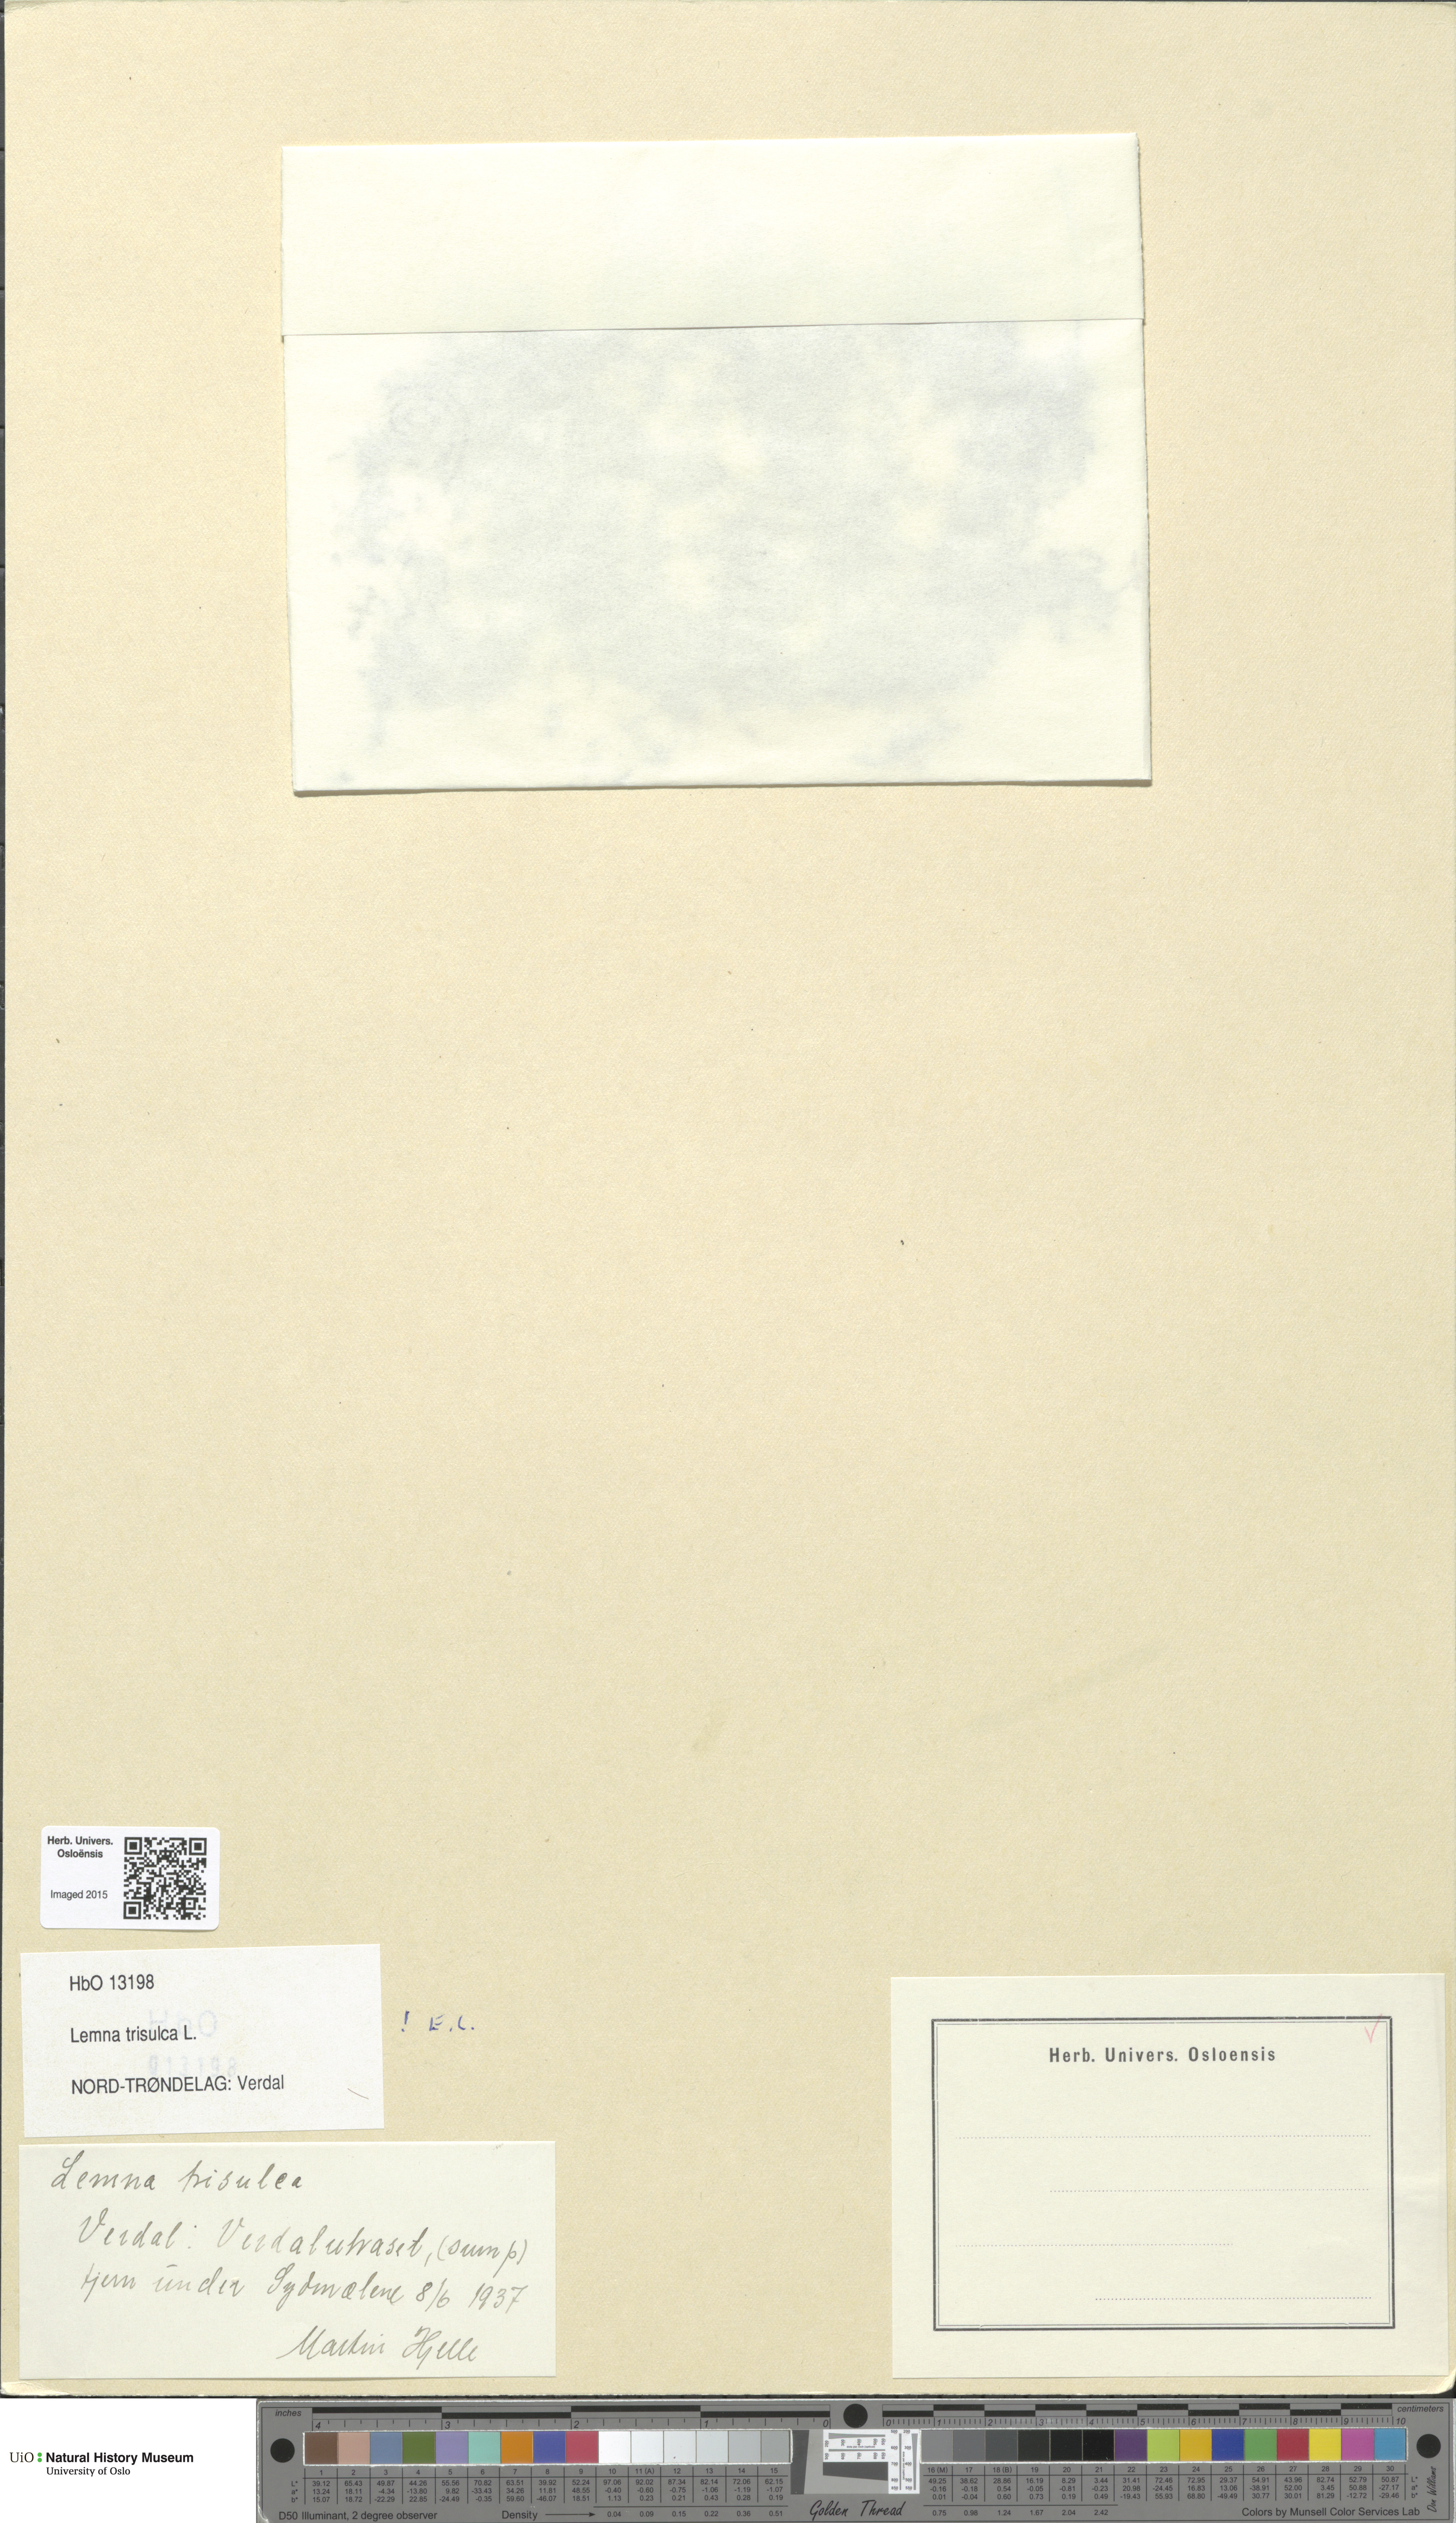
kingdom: Plantae
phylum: Tracheophyta
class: Liliopsida
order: Alismatales
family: Araceae
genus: Lemna
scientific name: Lemna trisulca
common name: Ivy-leaved duckweed
